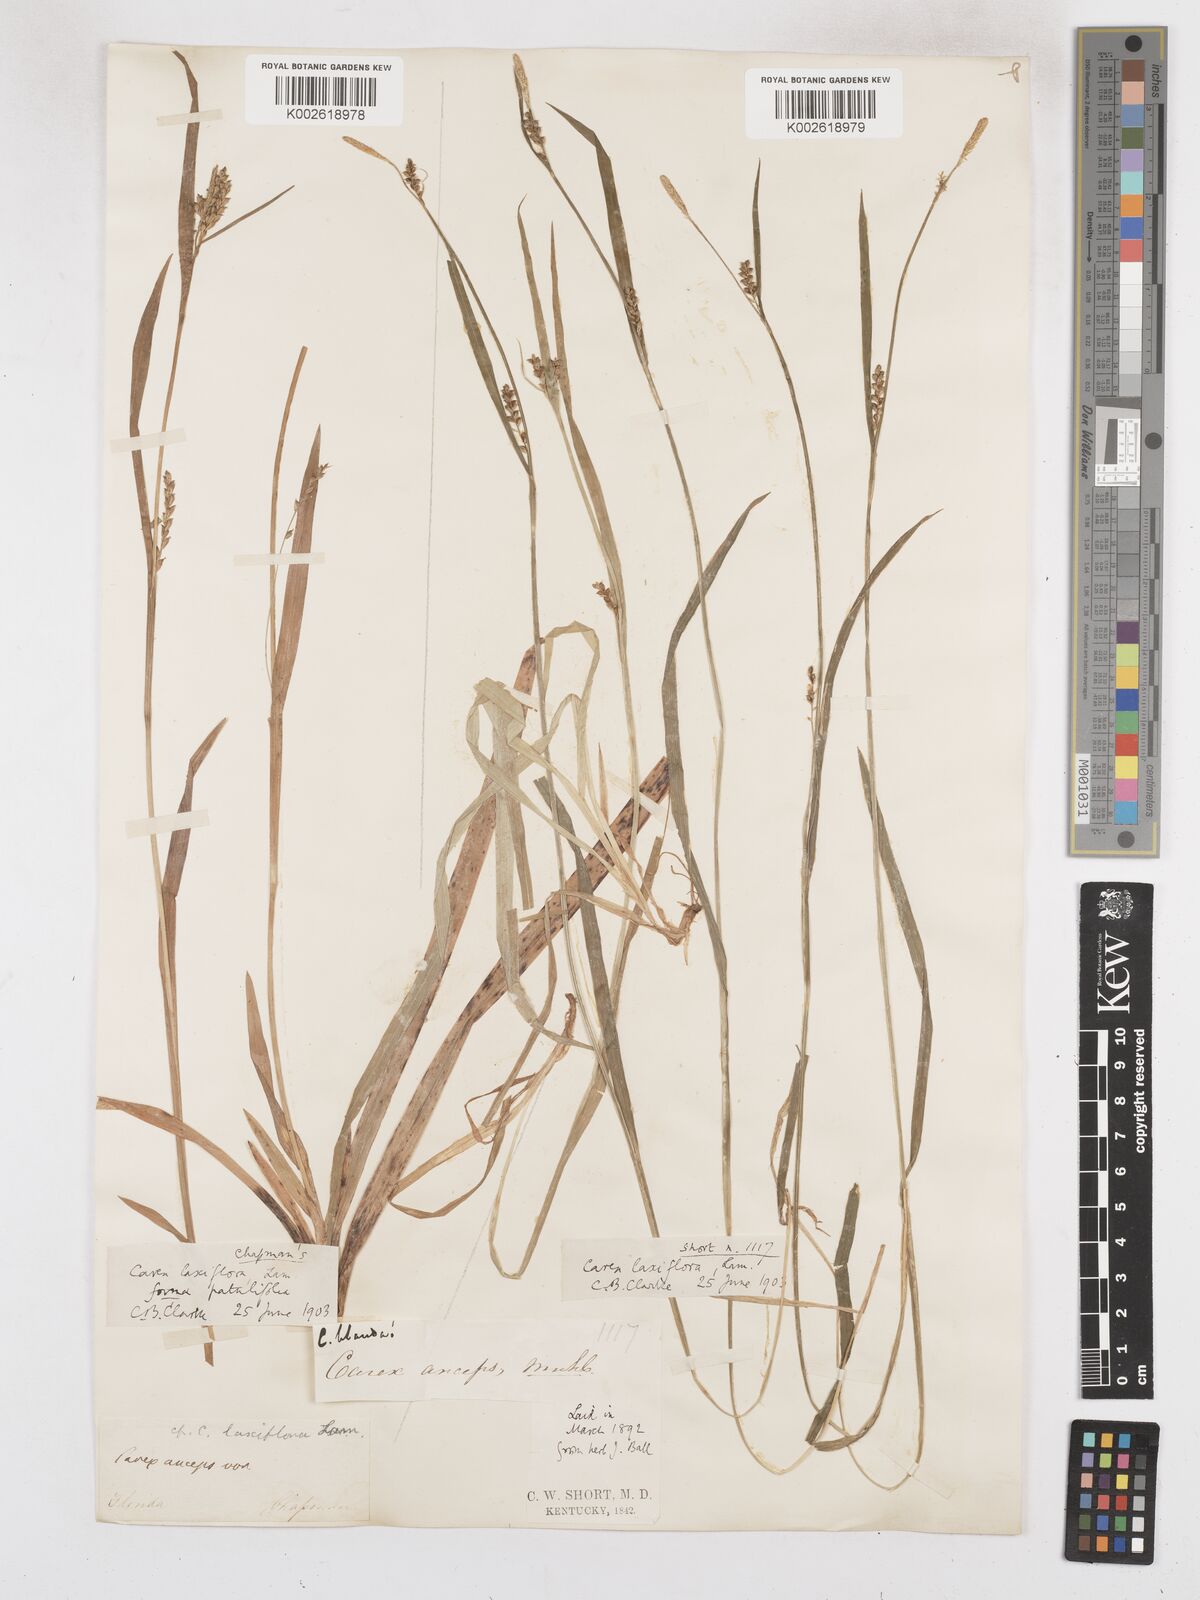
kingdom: Plantae
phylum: Tracheophyta
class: Liliopsida
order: Poales
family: Cyperaceae
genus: Carex
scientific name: Carex striatula
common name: Lined sedge
